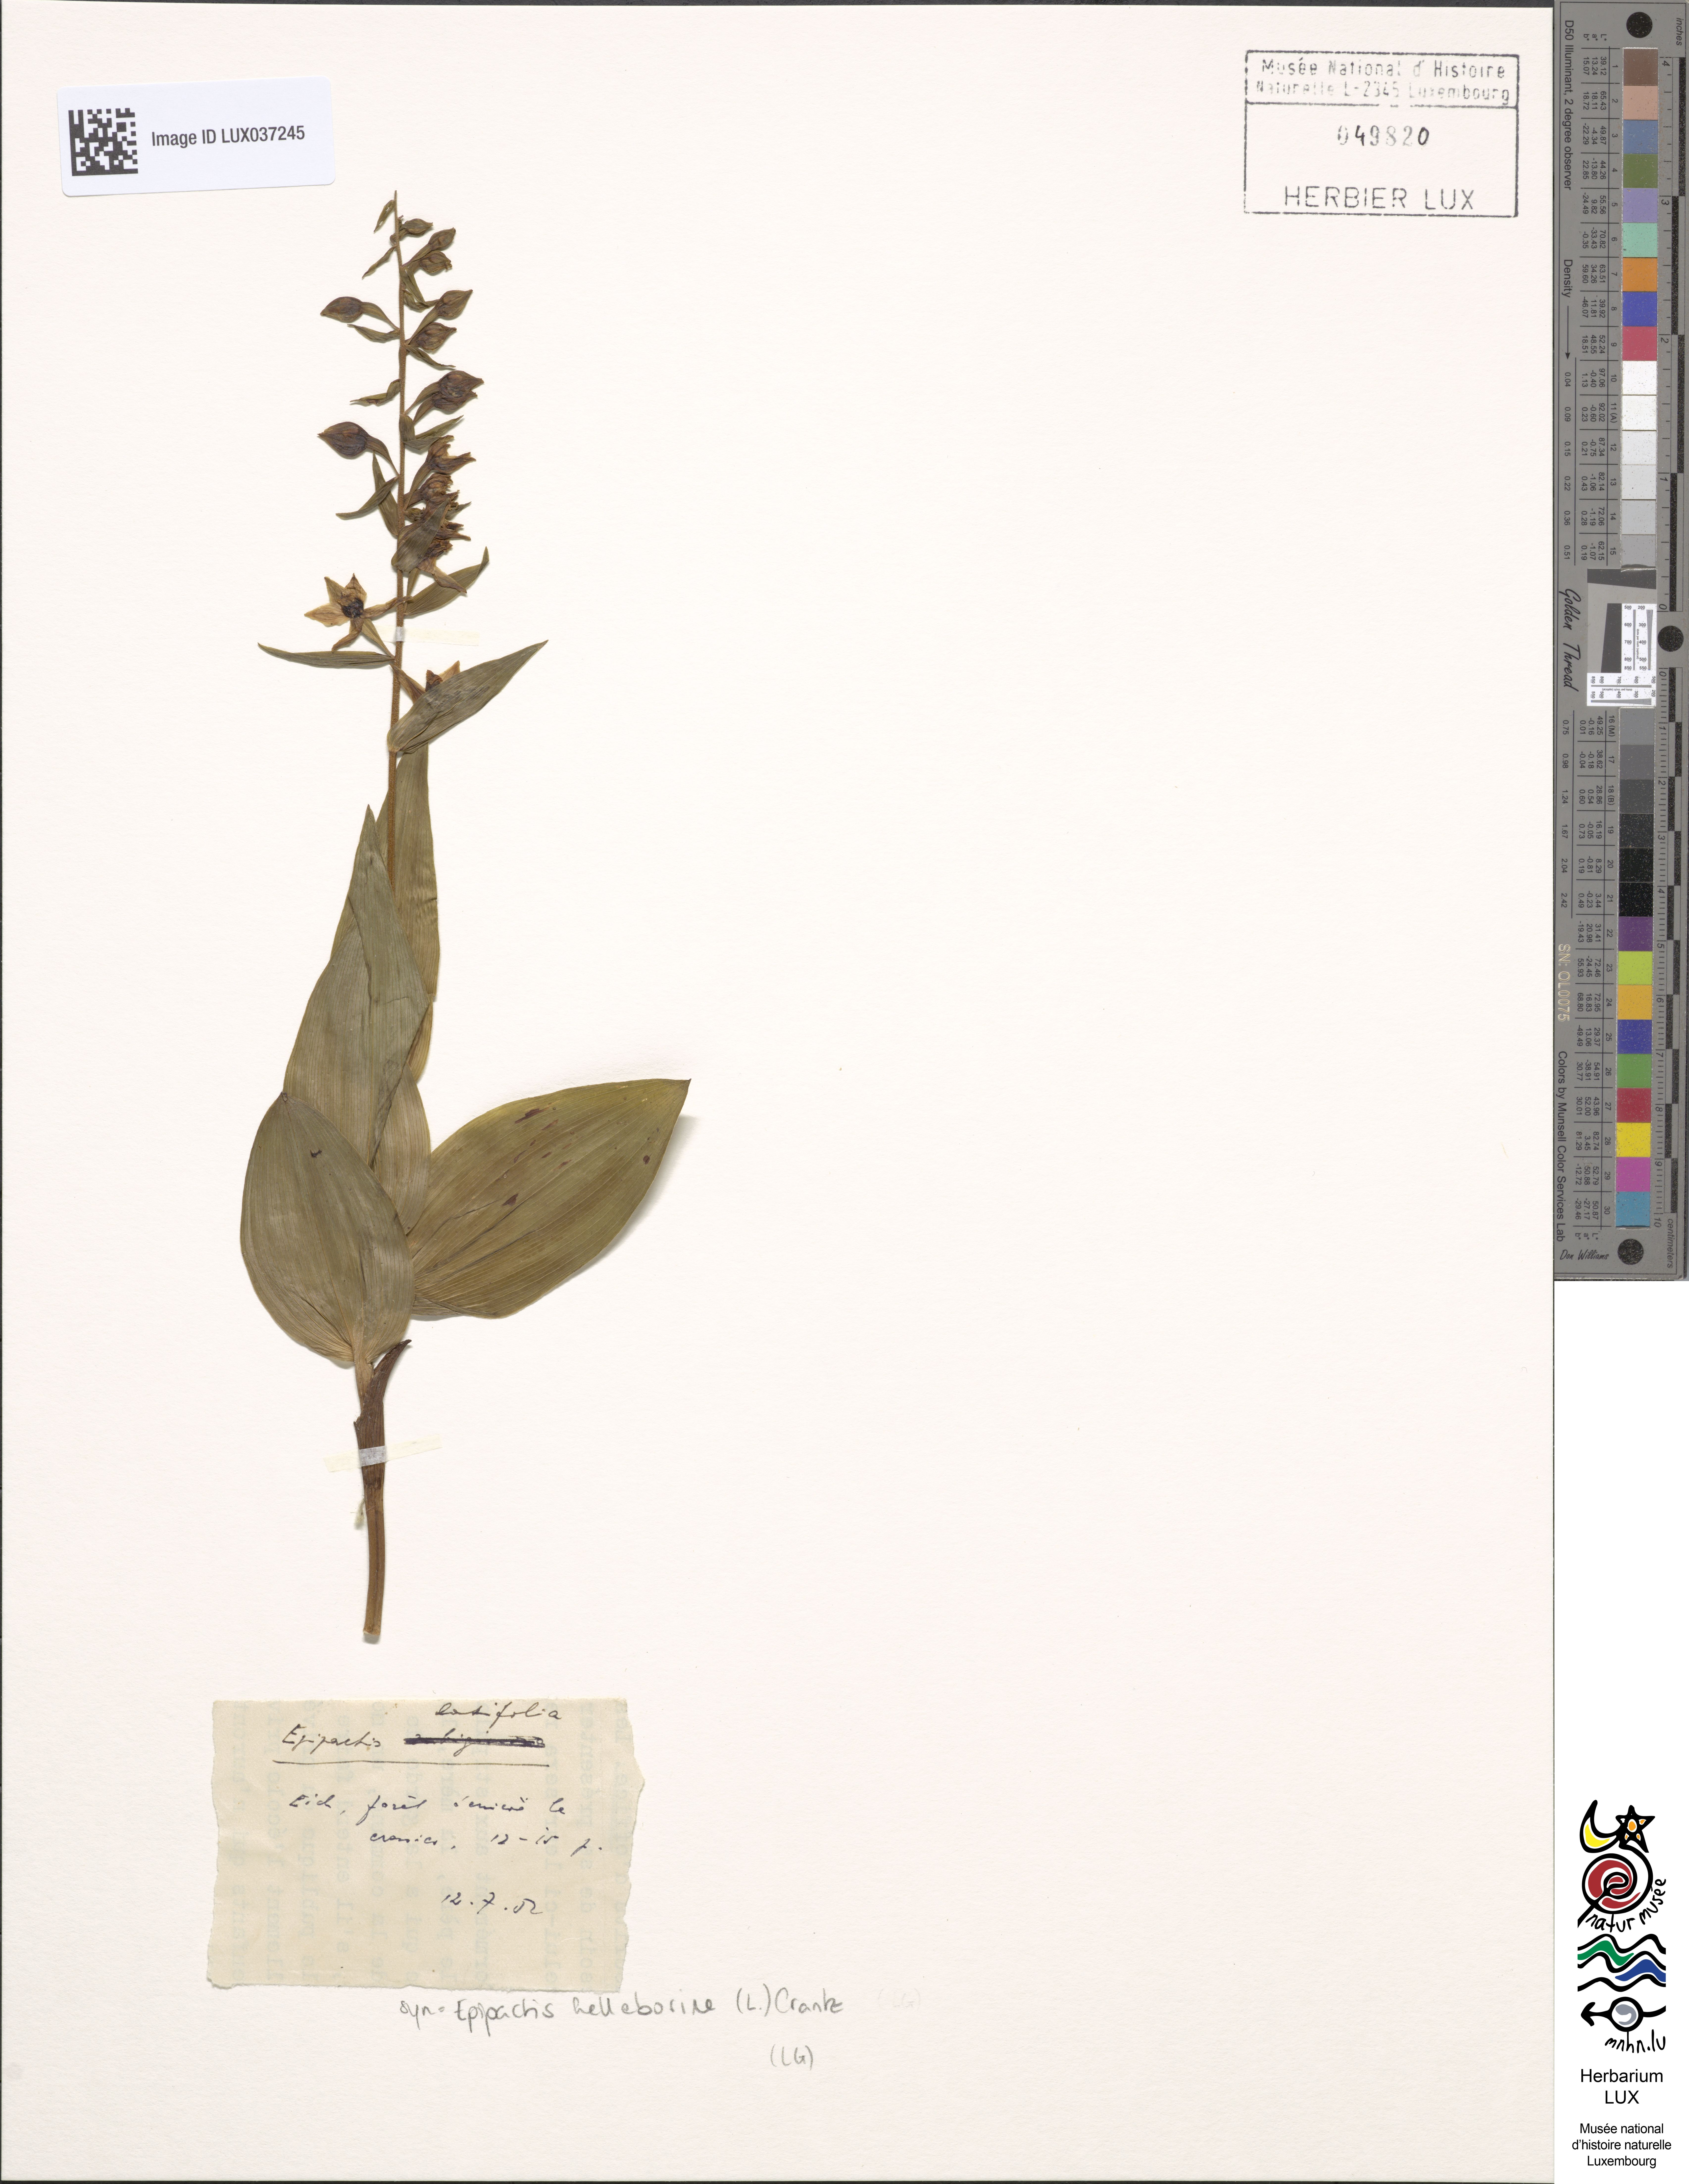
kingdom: Plantae
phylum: Tracheophyta
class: Liliopsida
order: Asparagales
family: Orchidaceae
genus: Epipactis
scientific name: Epipactis helleborine
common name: Broad-leaved helleborine
